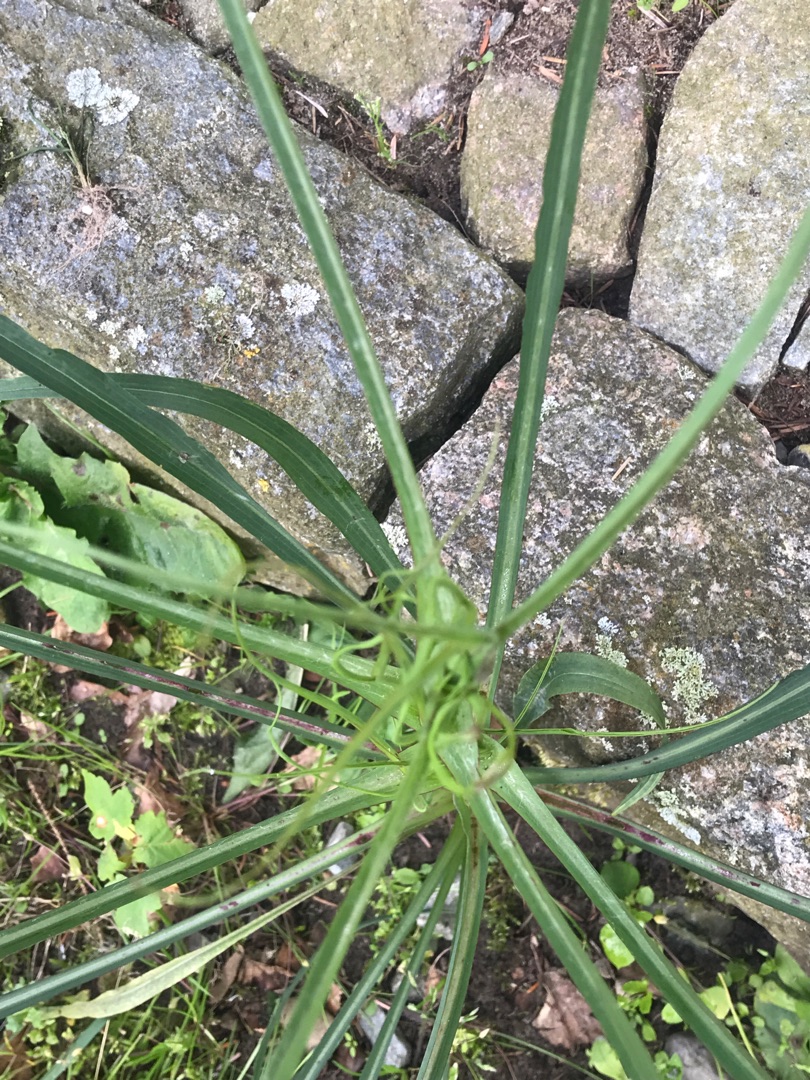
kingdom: Plantae
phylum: Tracheophyta
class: Magnoliopsida
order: Asterales
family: Asteraceae
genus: Tragopogon
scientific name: Tragopogon pratensis
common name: Gedeskæg
